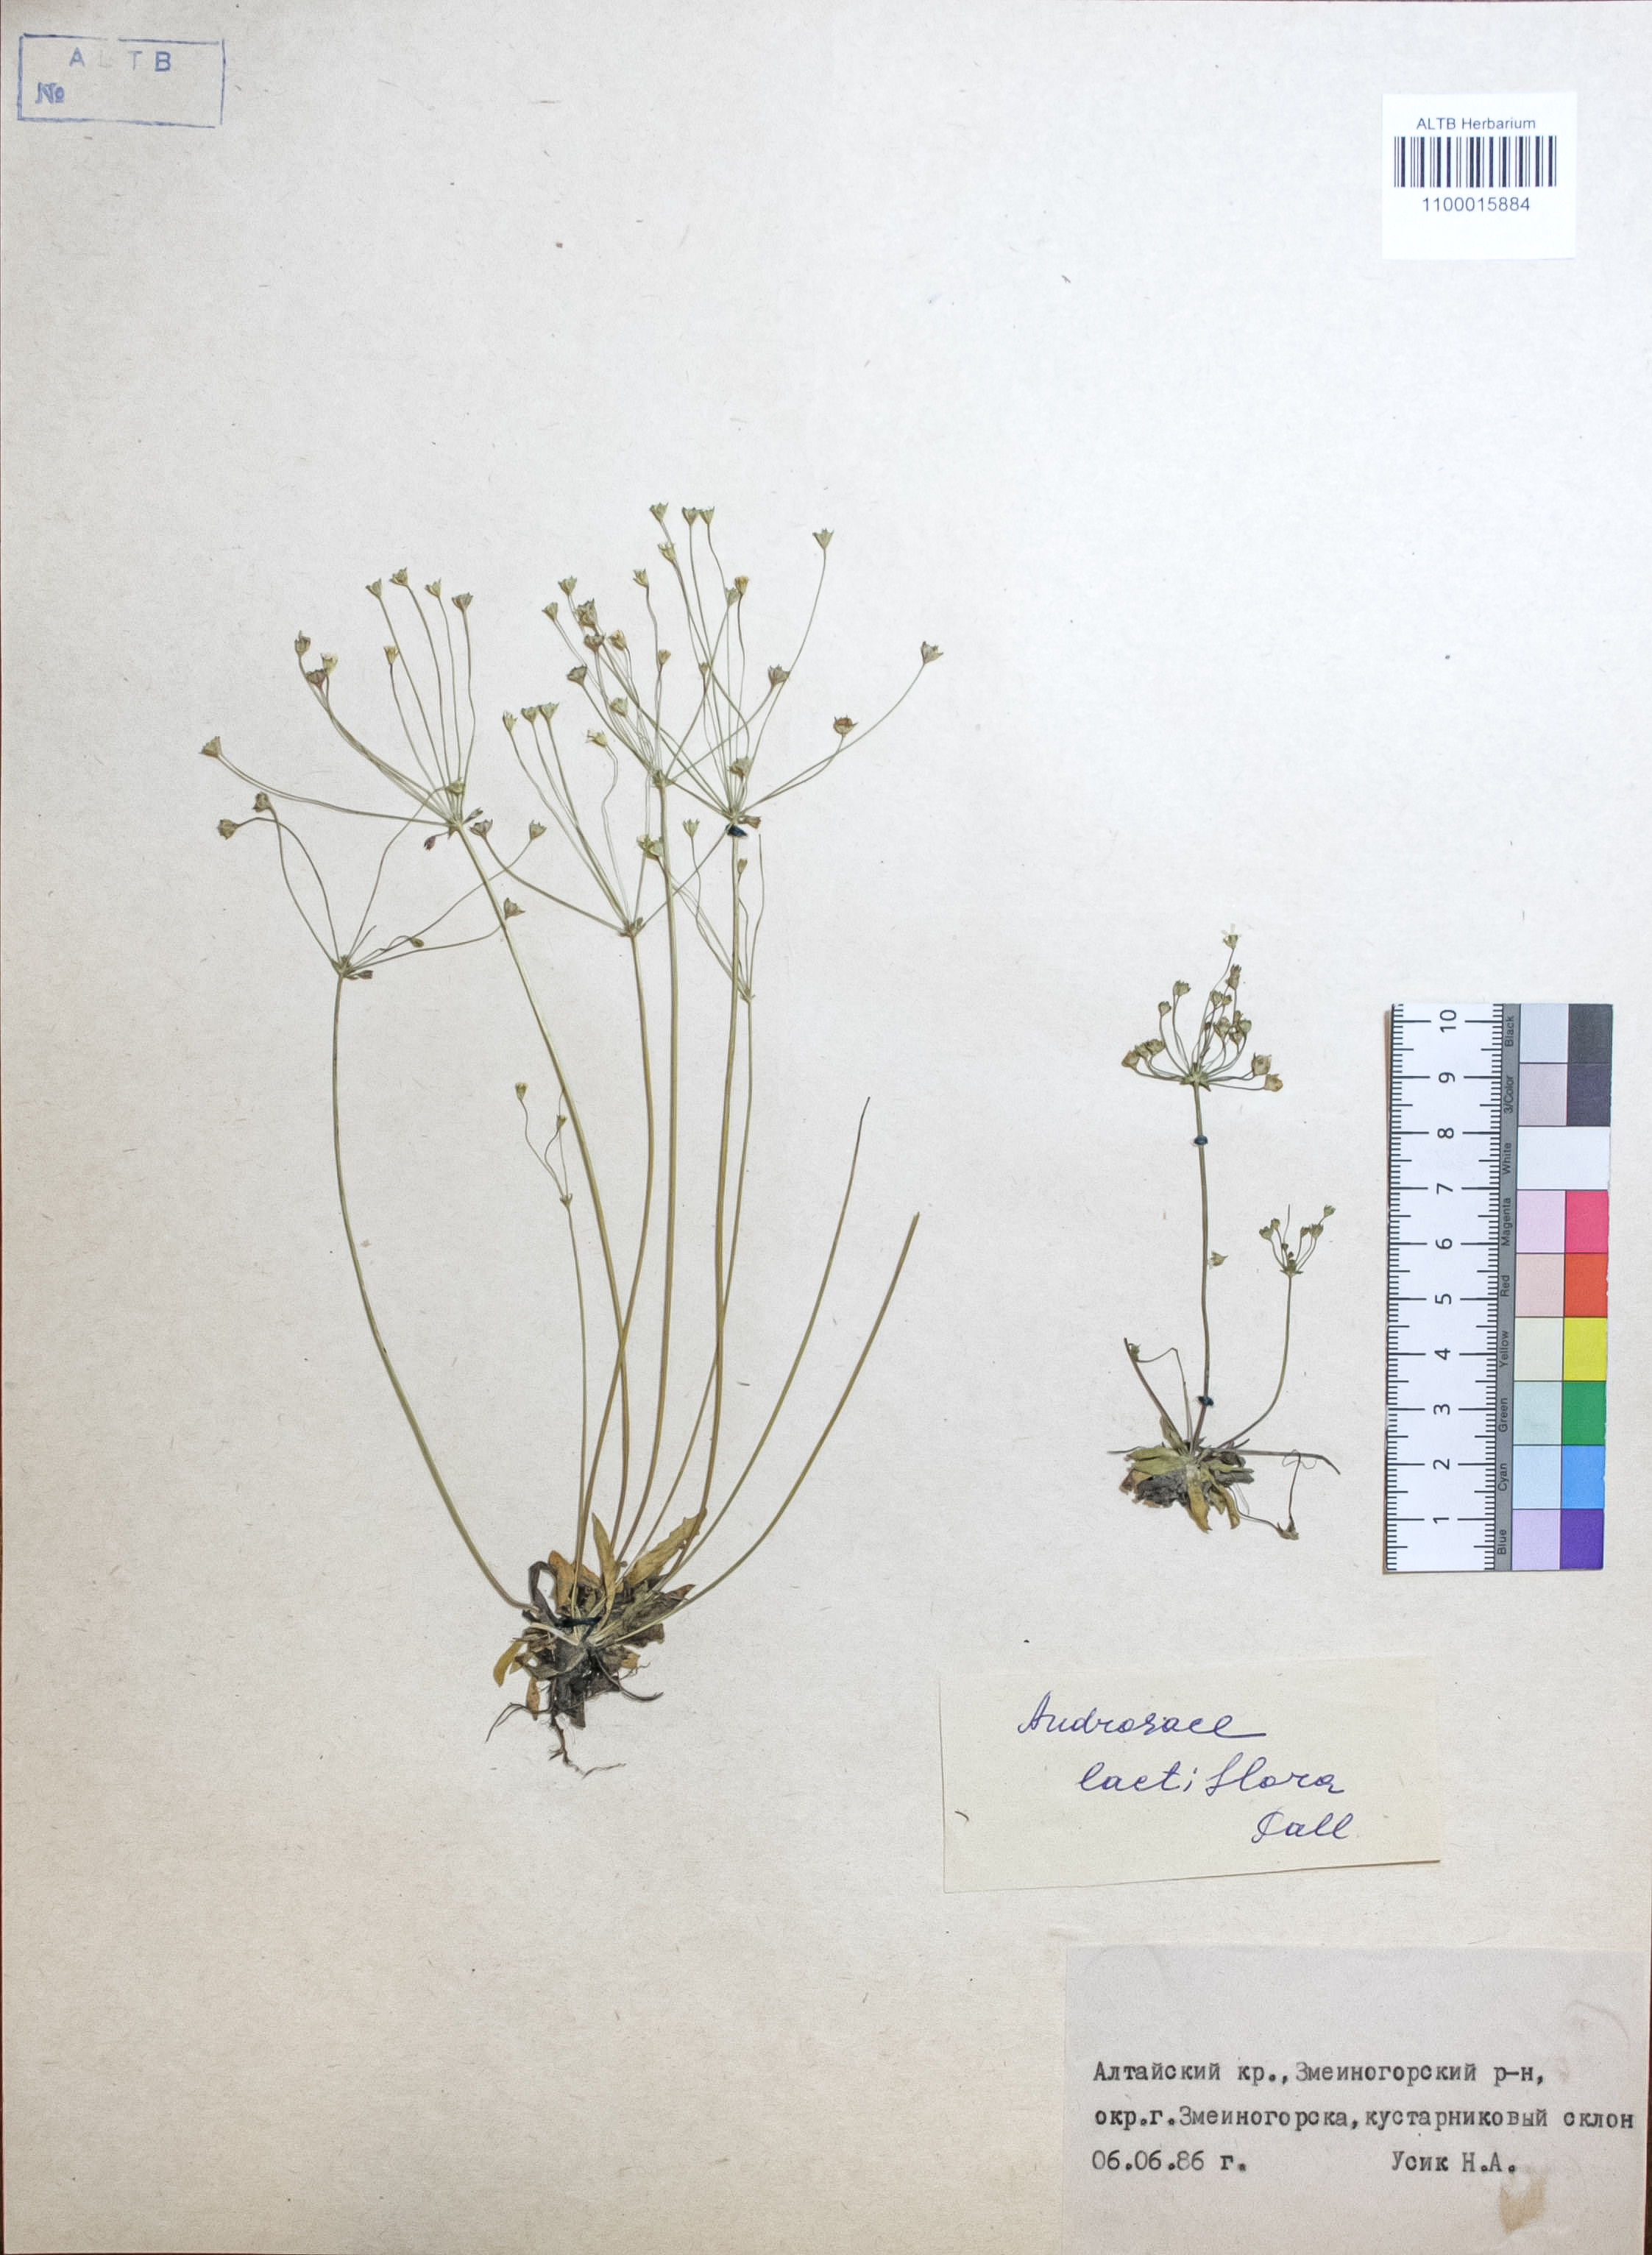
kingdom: Plantae
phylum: Tracheophyta
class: Magnoliopsida
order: Ericales
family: Primulaceae
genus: Androsace
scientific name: Androsace lactiflora
